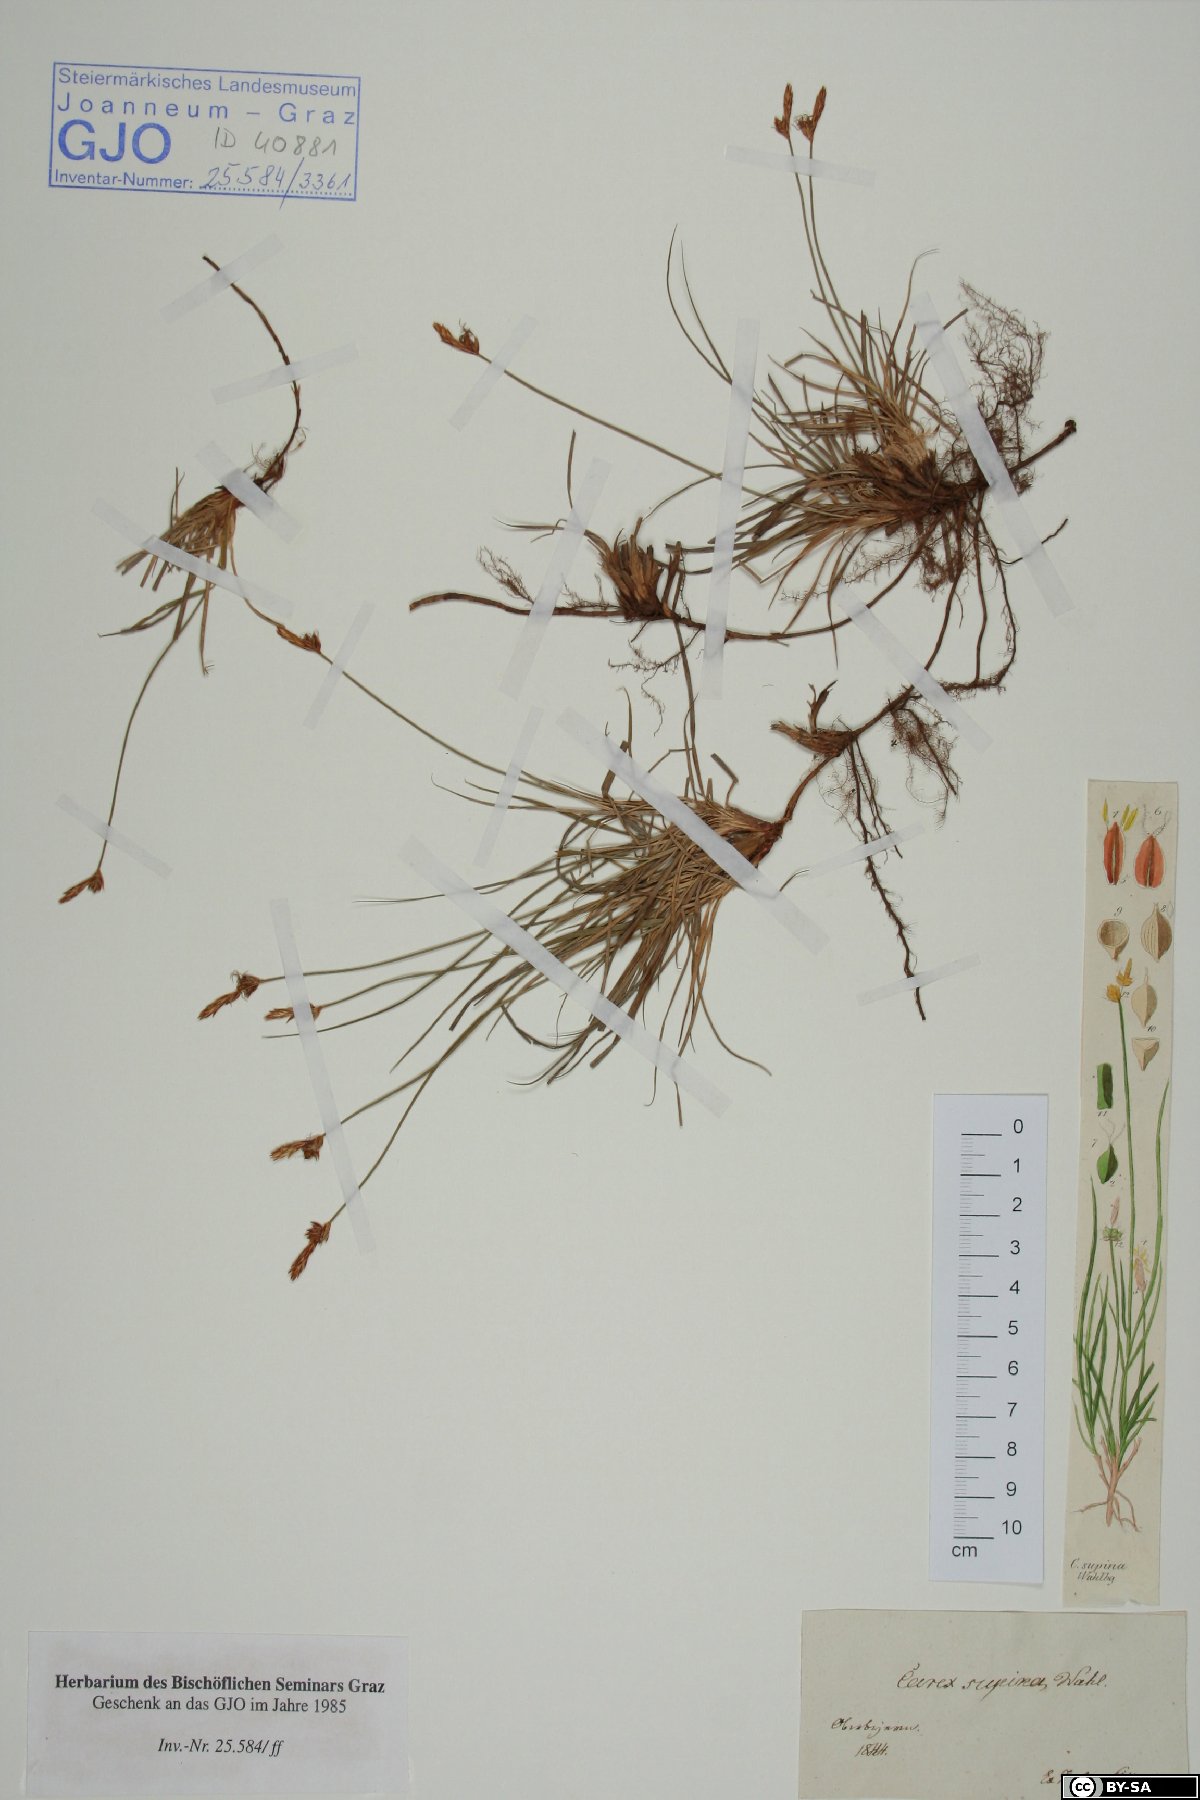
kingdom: Plantae
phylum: Tracheophyta
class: Liliopsida
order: Poales
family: Cyperaceae
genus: Carex
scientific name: Carex supina
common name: Lying-back sedge
